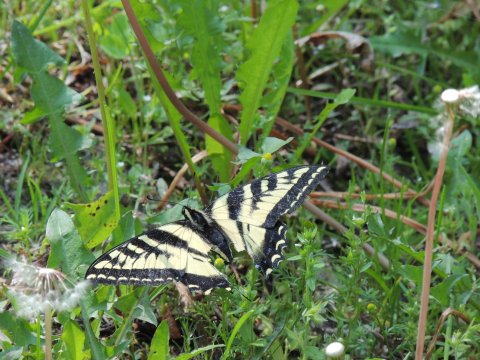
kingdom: Animalia
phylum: Arthropoda
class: Insecta
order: Lepidoptera
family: Papilionidae
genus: Pterourus
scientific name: Pterourus rutulus
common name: Western Tiger Swallowtail
